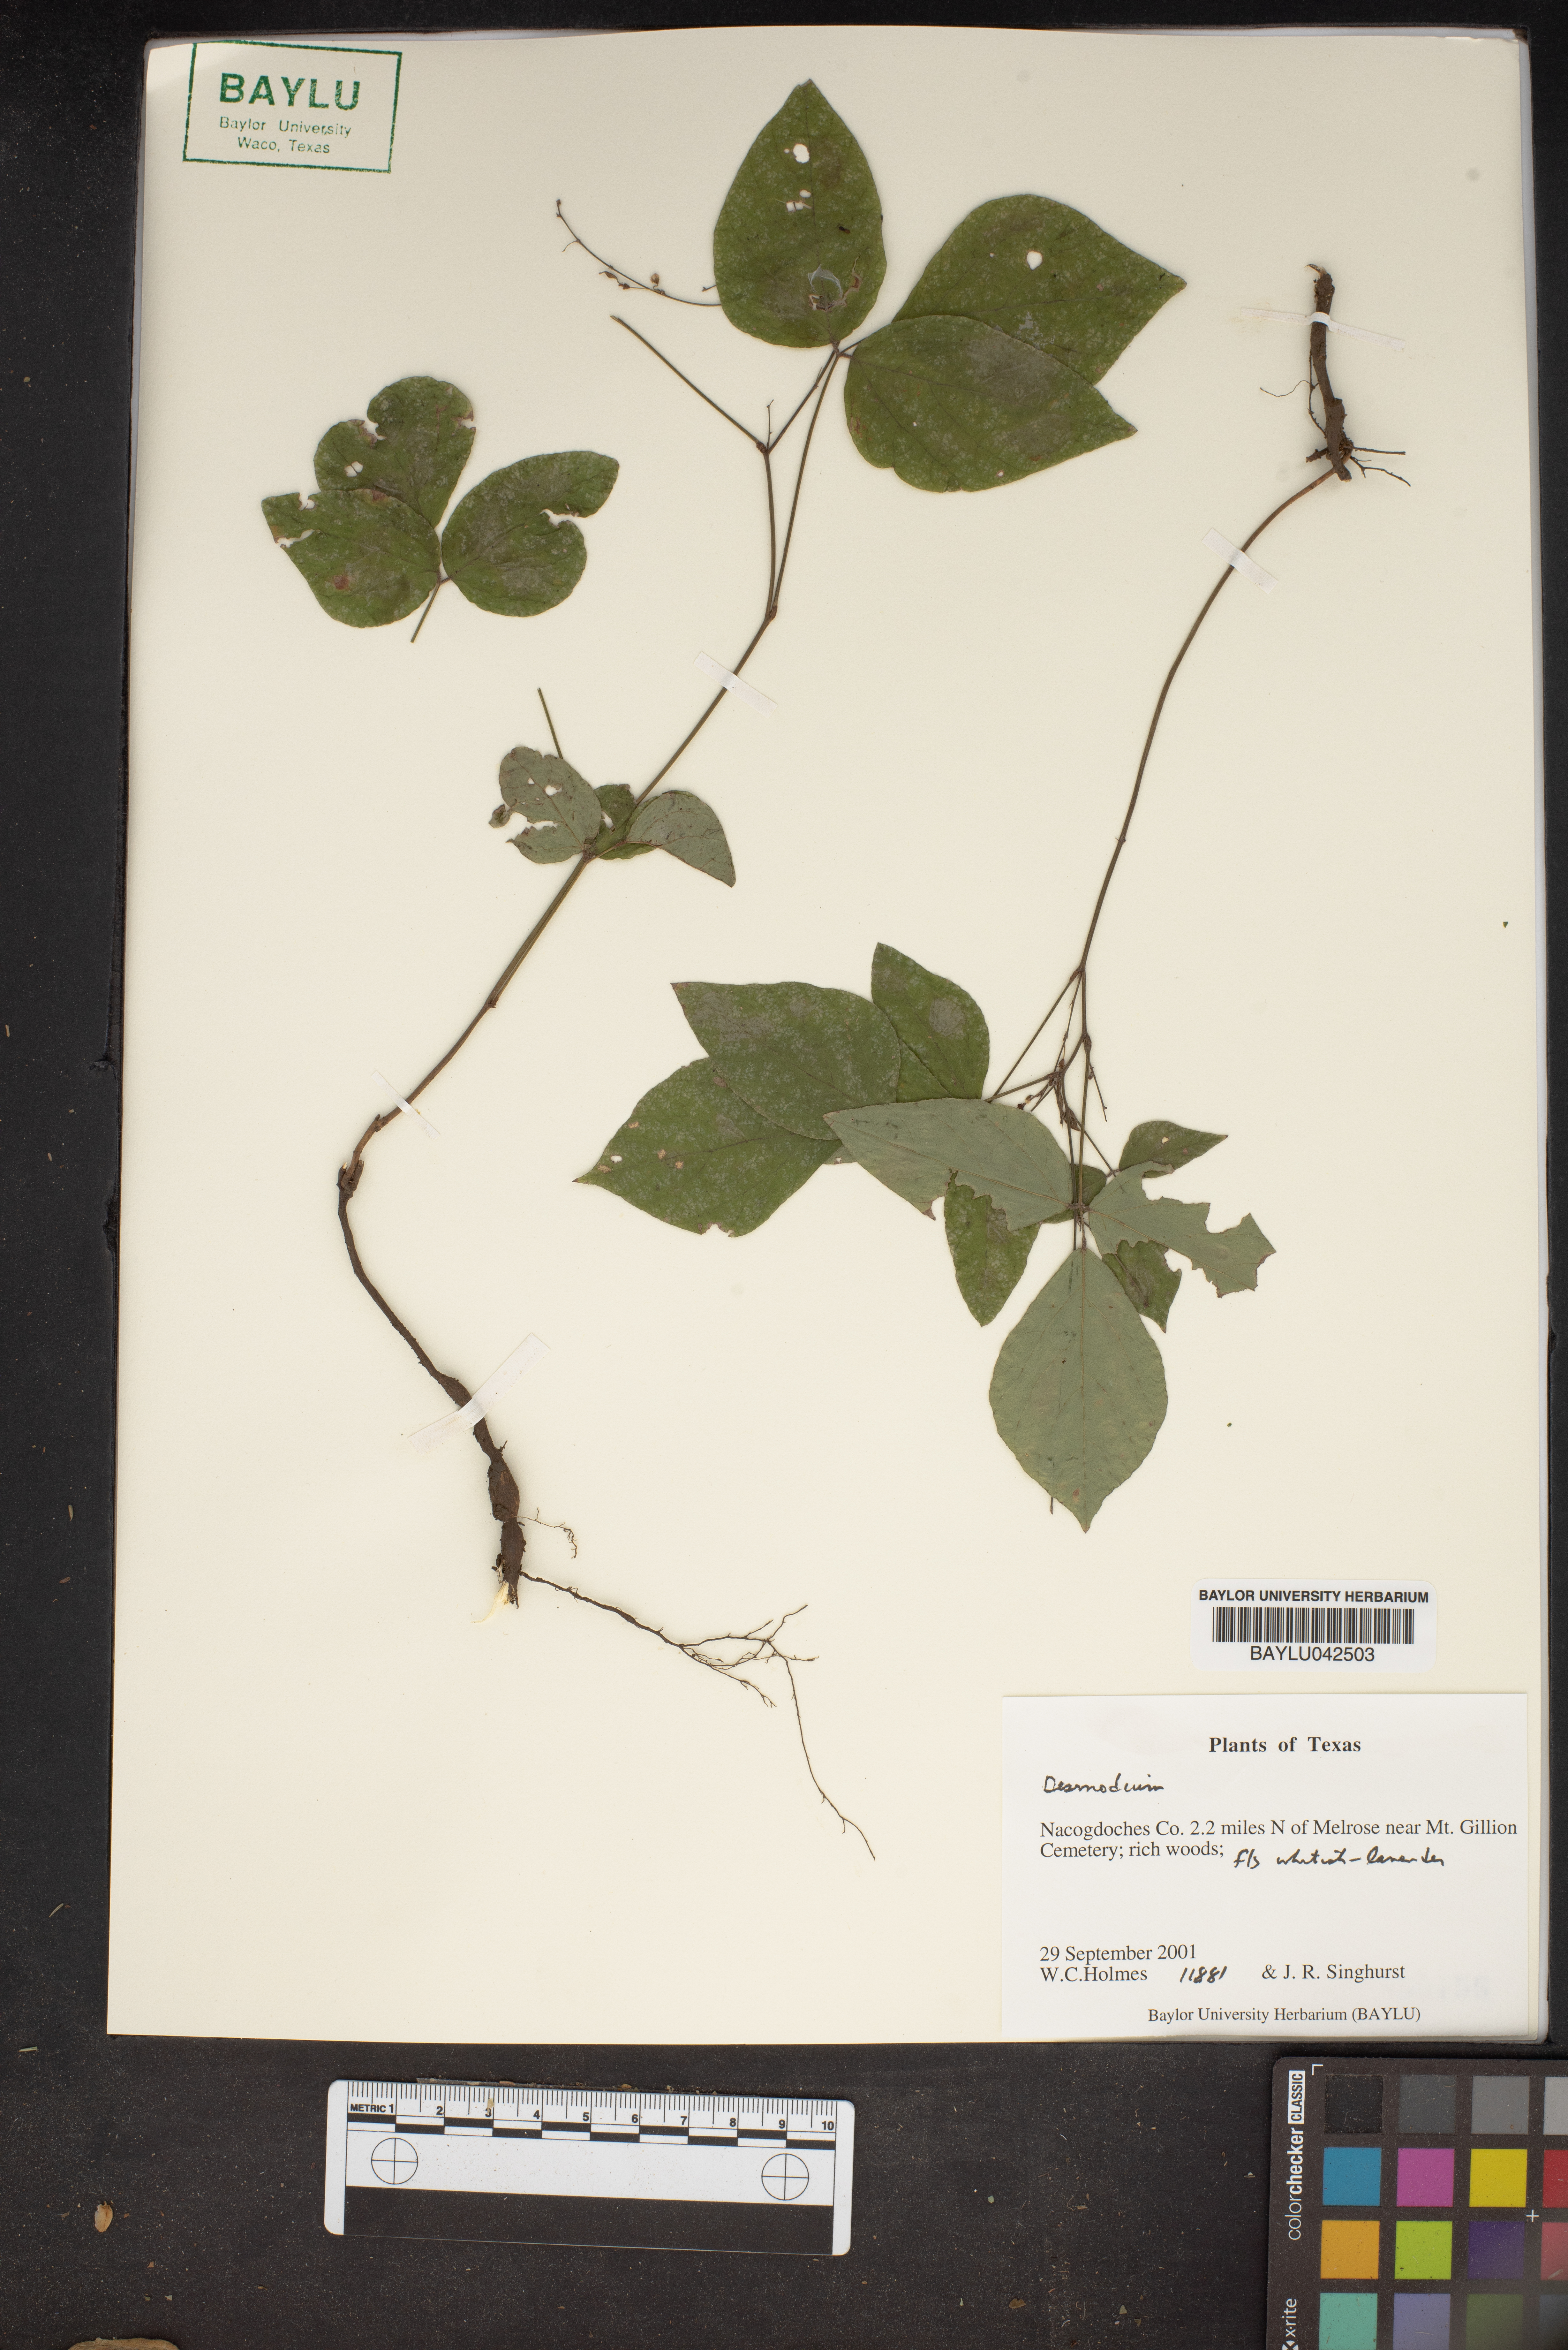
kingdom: Plantae
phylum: Tracheophyta
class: Magnoliopsida
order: Fabales
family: Fabaceae
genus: Desmodium
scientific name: Desmodium
